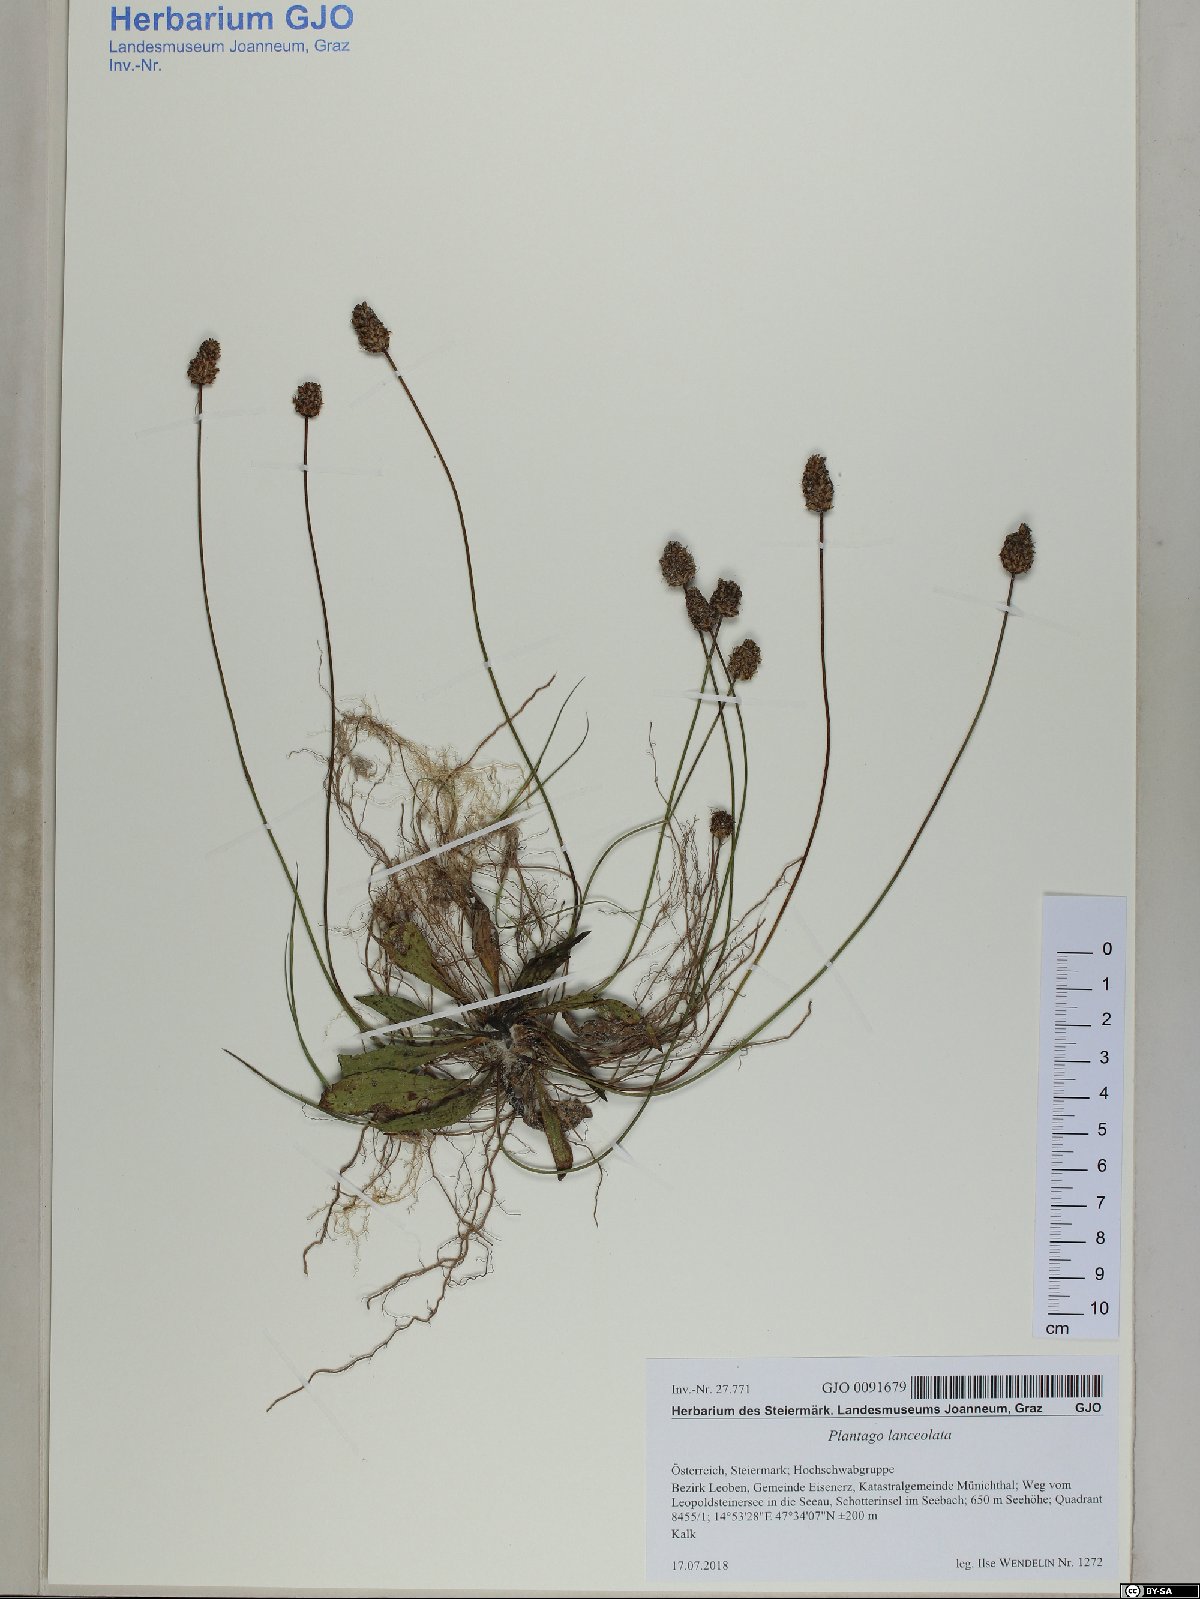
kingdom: Plantae
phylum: Tracheophyta
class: Magnoliopsida
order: Lamiales
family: Plantaginaceae
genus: Plantago
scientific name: Plantago lanceolata
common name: Ribwort plantain
